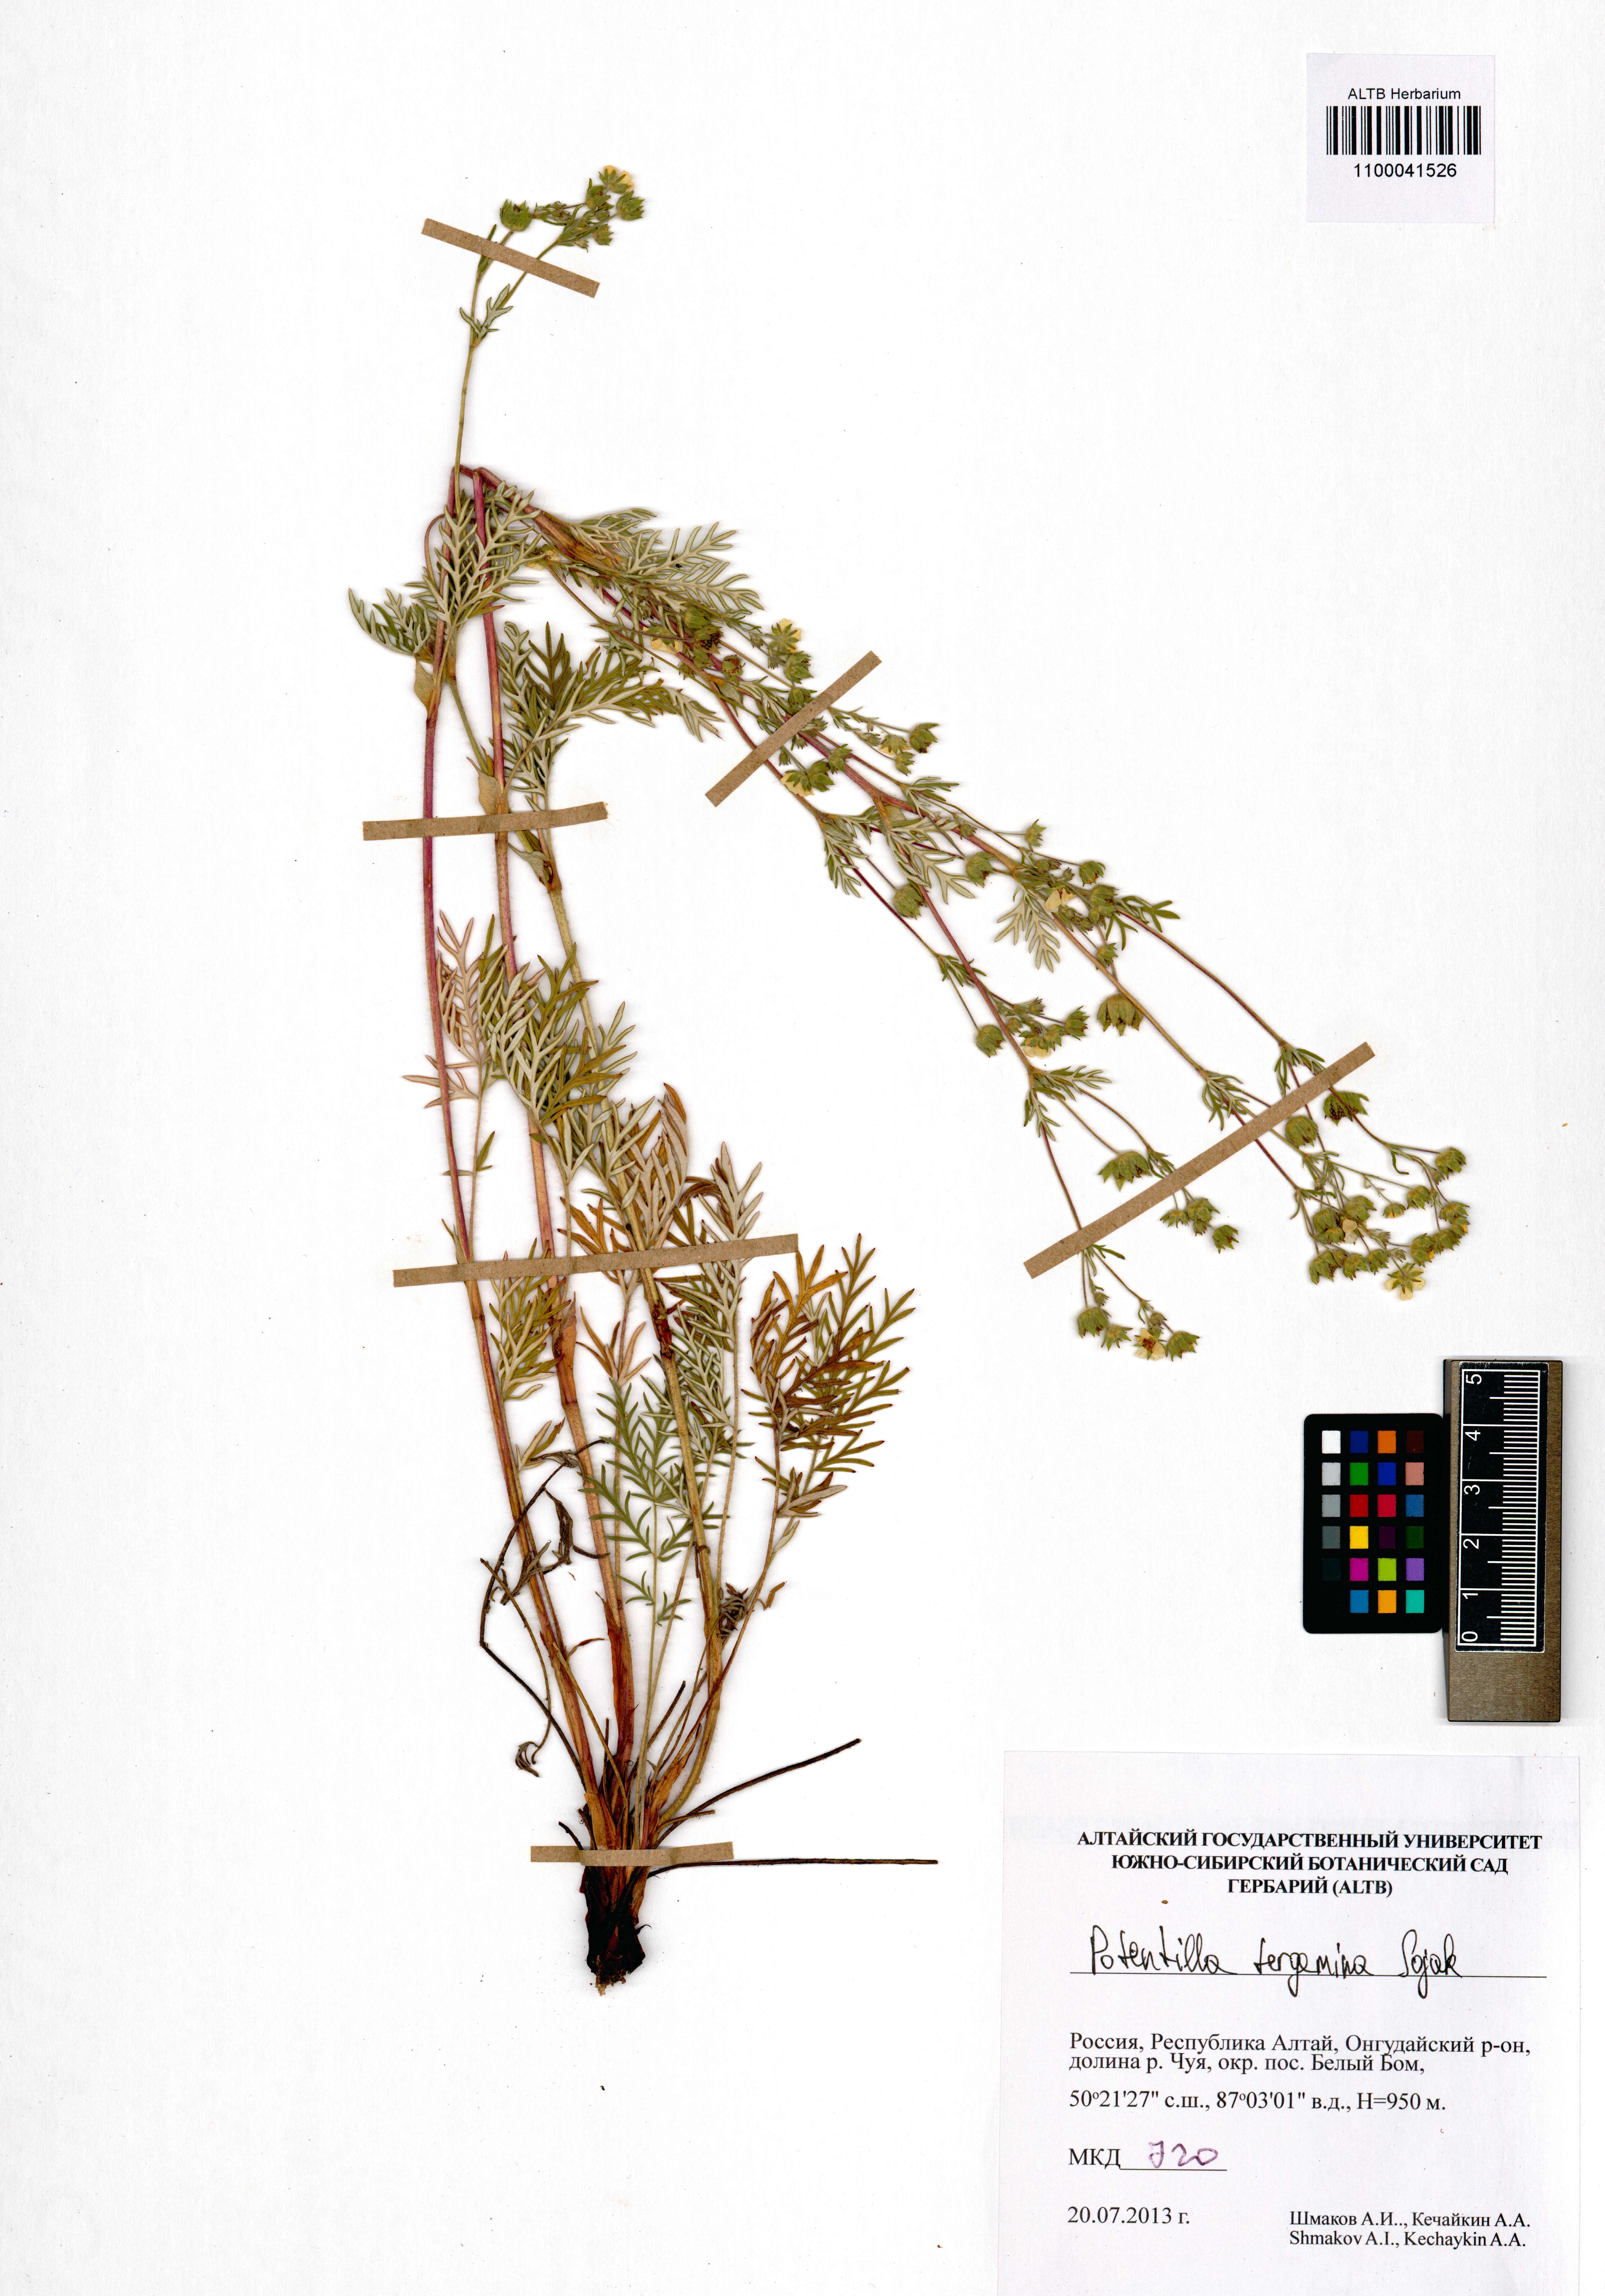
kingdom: Plantae
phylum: Tracheophyta
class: Magnoliopsida
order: Rosales
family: Rosaceae
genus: Potentilla
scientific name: Potentilla tergemina
